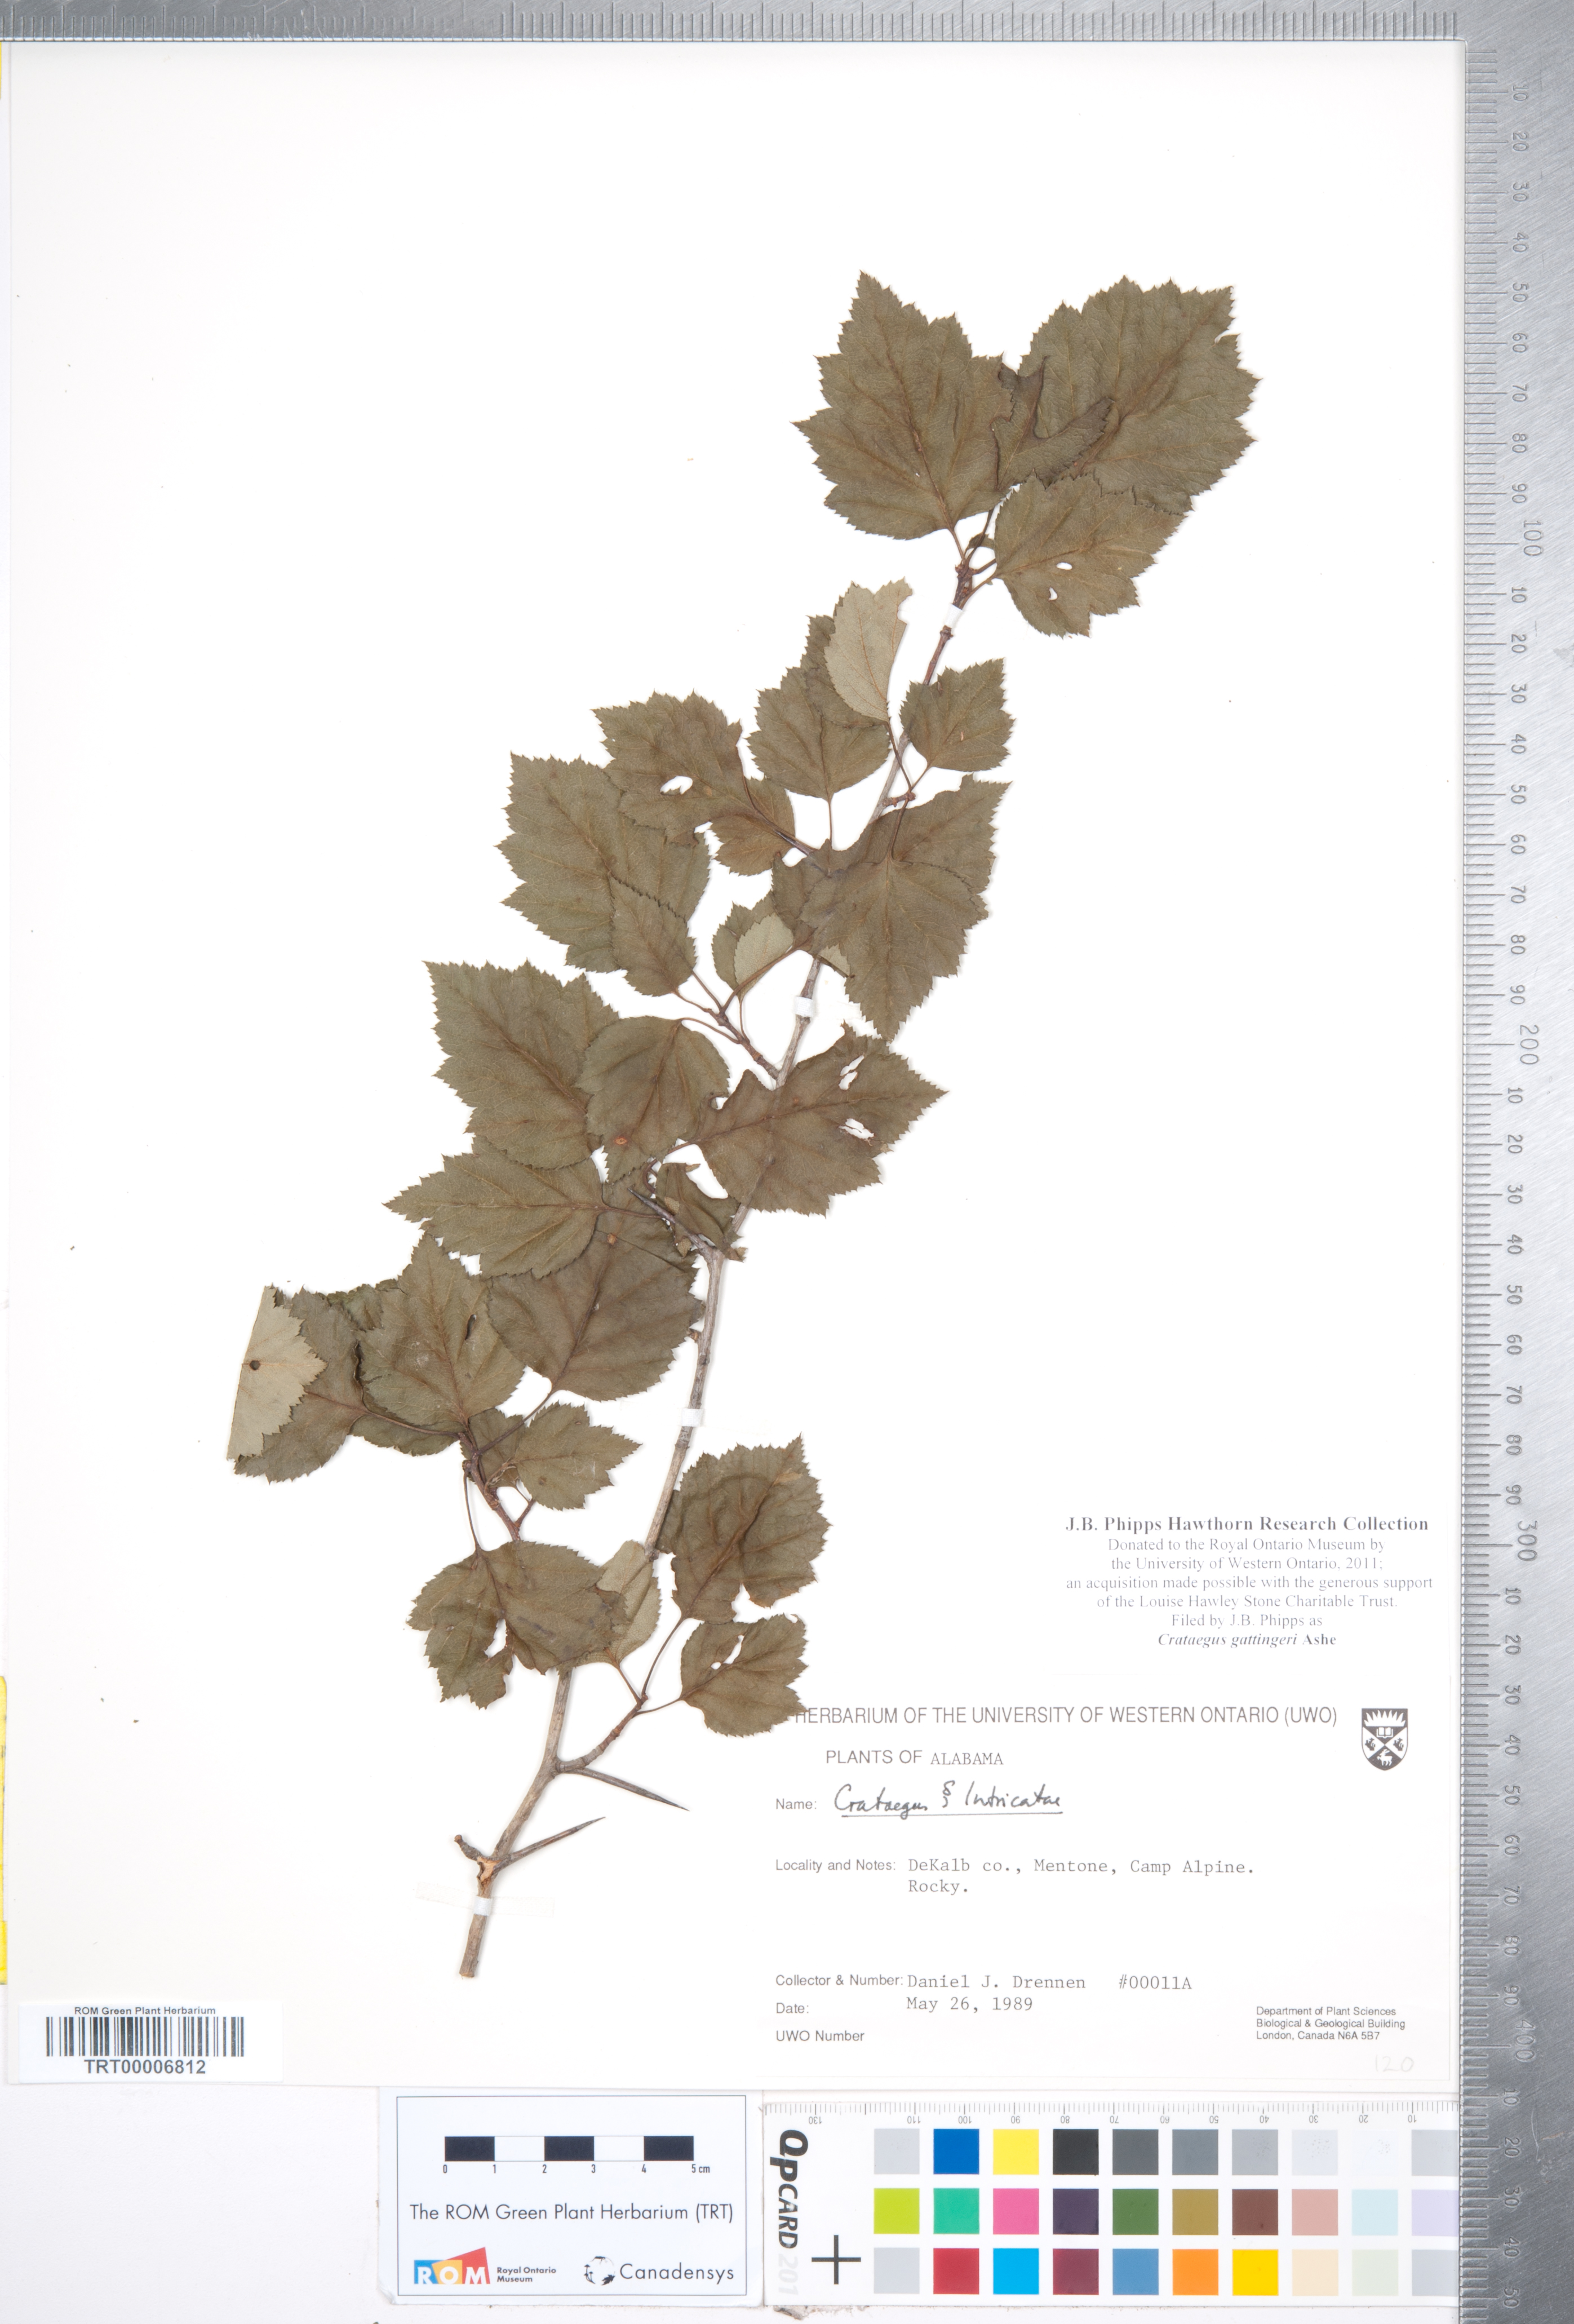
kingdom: Plantae
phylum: Tracheophyta
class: Magnoliopsida
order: Rosales
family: Rosaceae
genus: Crataegus
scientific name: Crataegus gattingeri
